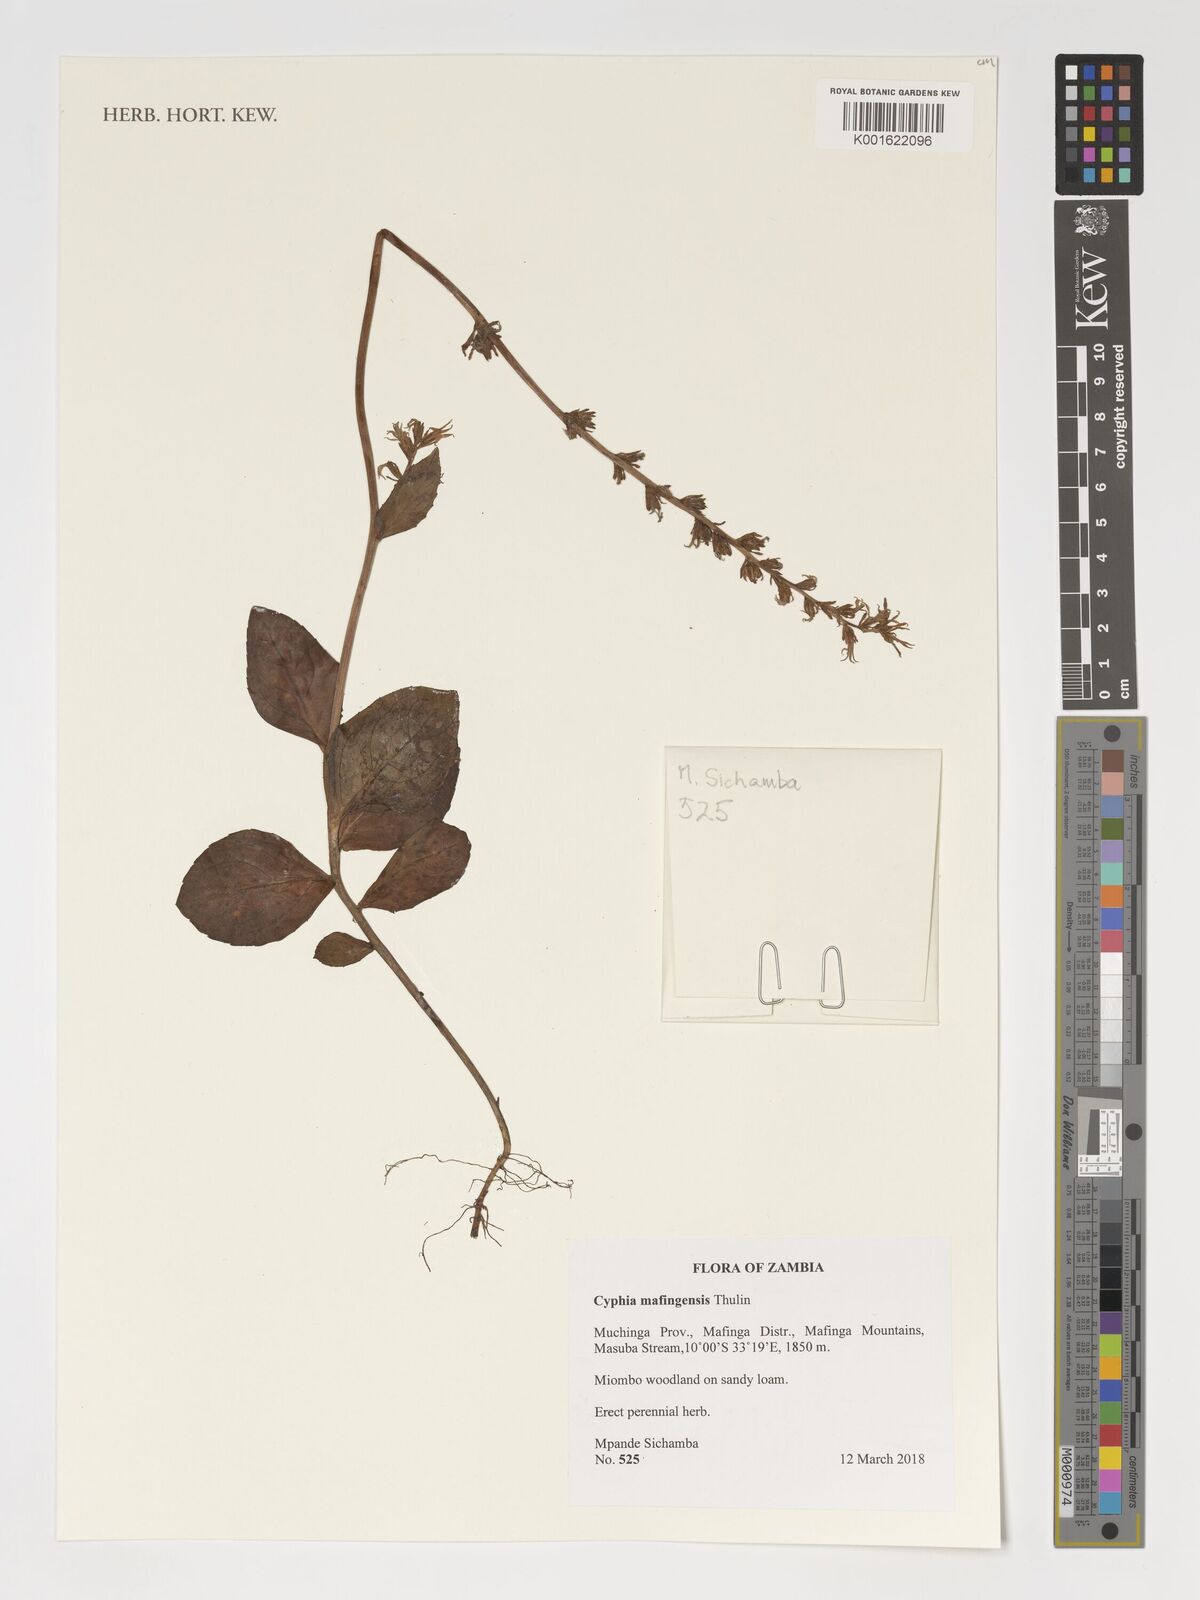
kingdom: Plantae
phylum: Tracheophyta
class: Magnoliopsida
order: Asterales
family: Campanulaceae
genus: Cyphia
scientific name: Cyphia mafingensis
